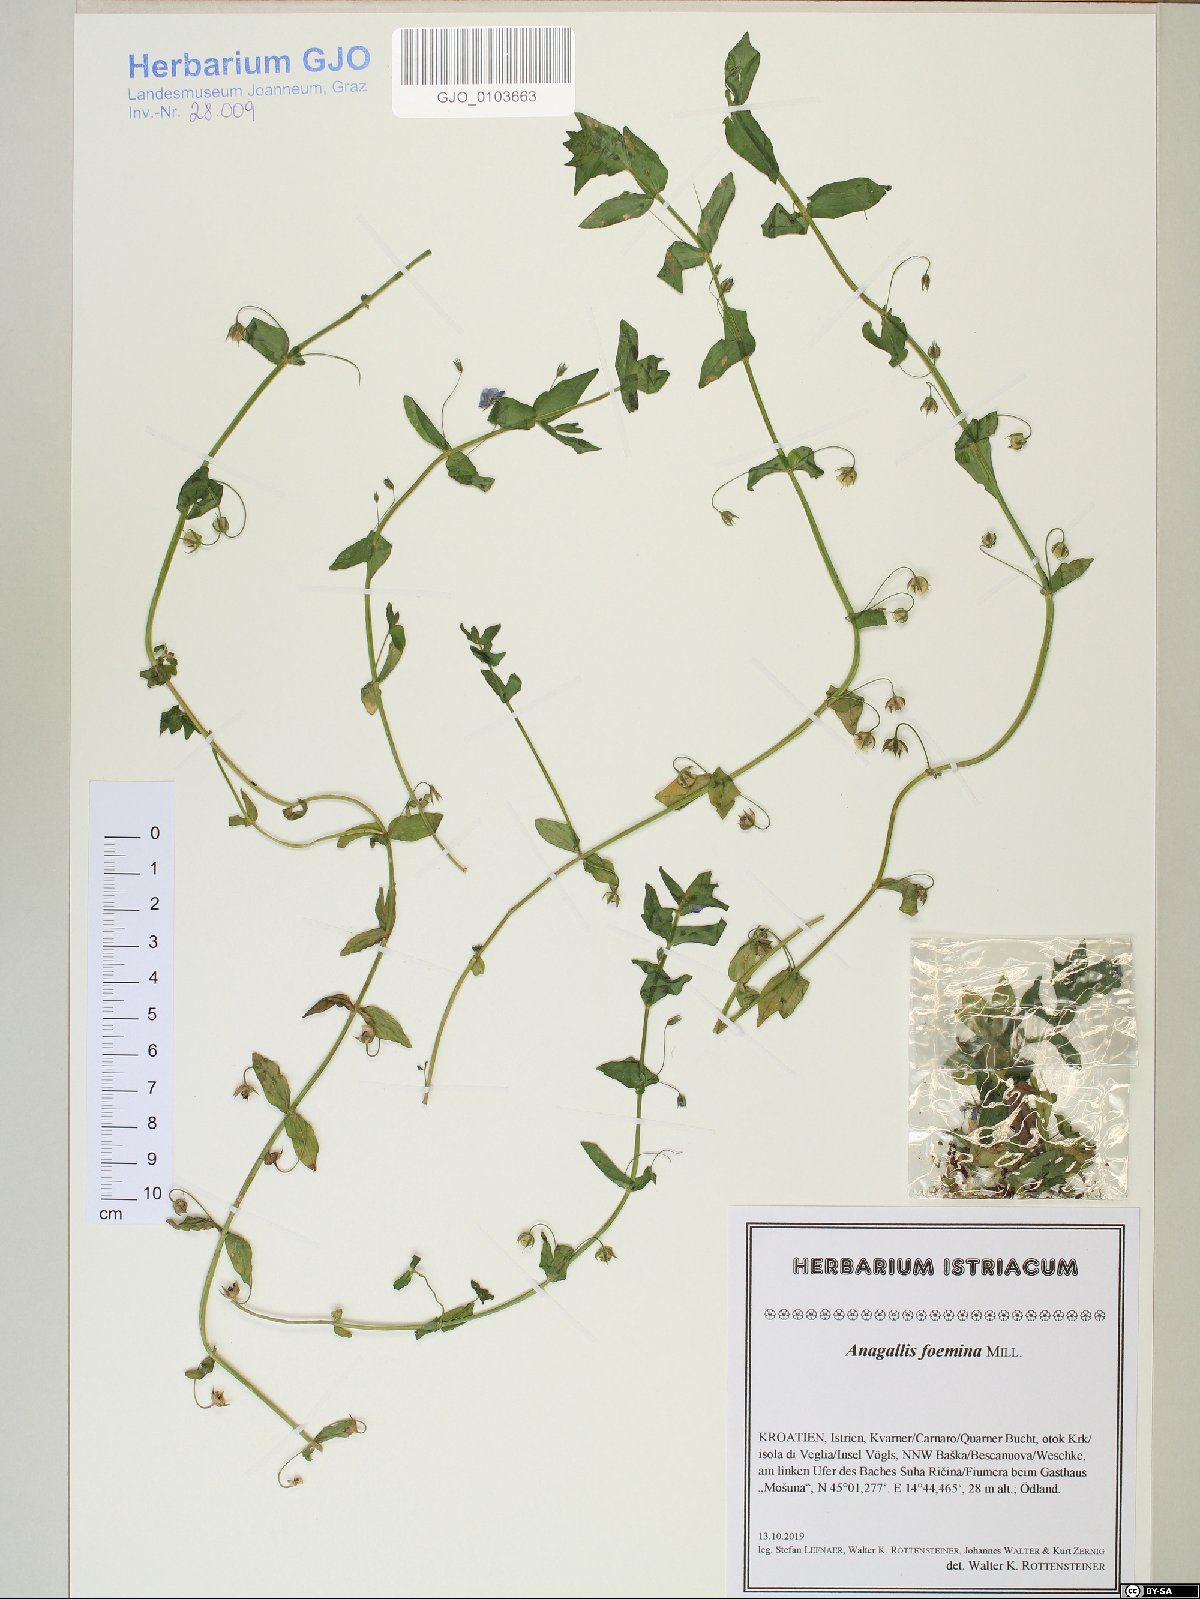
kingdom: Plantae
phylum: Tracheophyta
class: Magnoliopsida
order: Ericales
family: Primulaceae
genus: Lysimachia
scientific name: Lysimachia foemina
